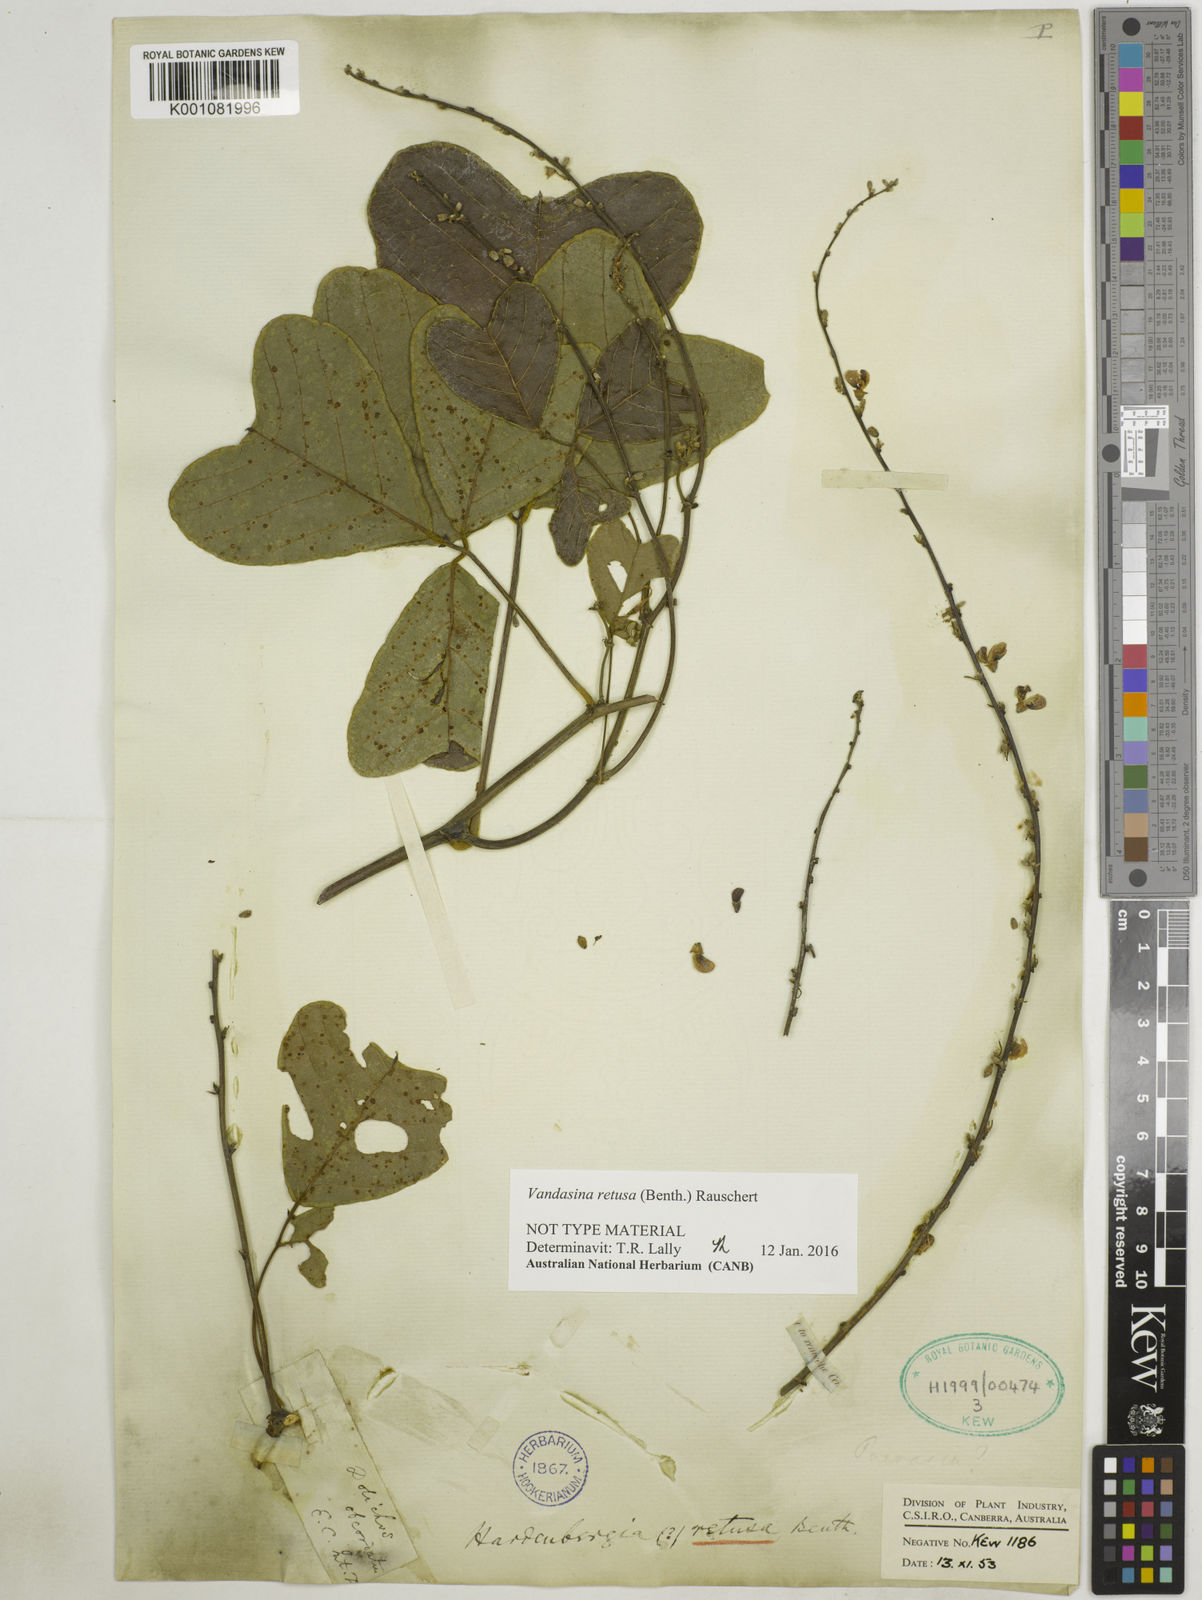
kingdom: Plantae
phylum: Tracheophyta
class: Magnoliopsida
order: Fabales
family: Fabaceae
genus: Vandasina
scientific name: Vandasina retusa
